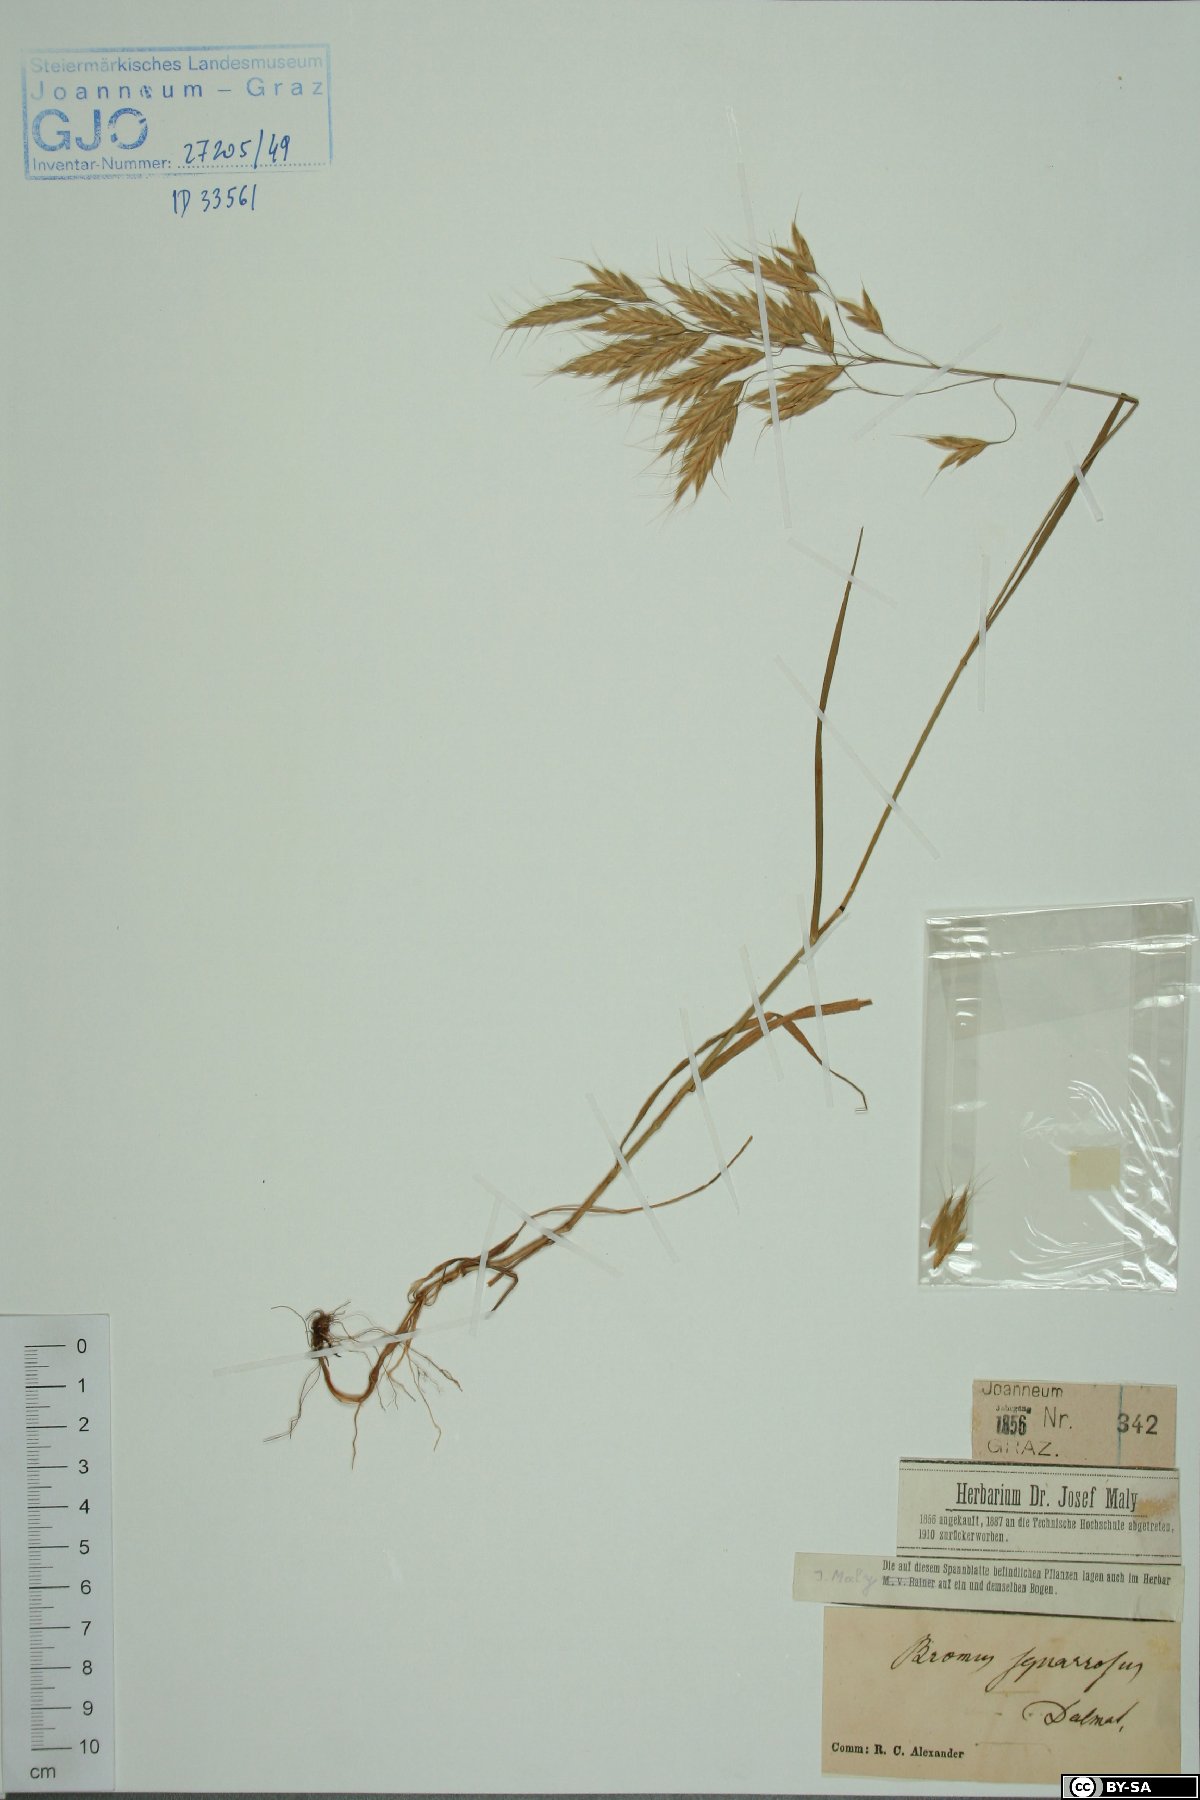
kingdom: Plantae
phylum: Tracheophyta
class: Liliopsida
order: Poales
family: Poaceae
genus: Bromus
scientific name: Bromus squarrosus
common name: Corn brome
